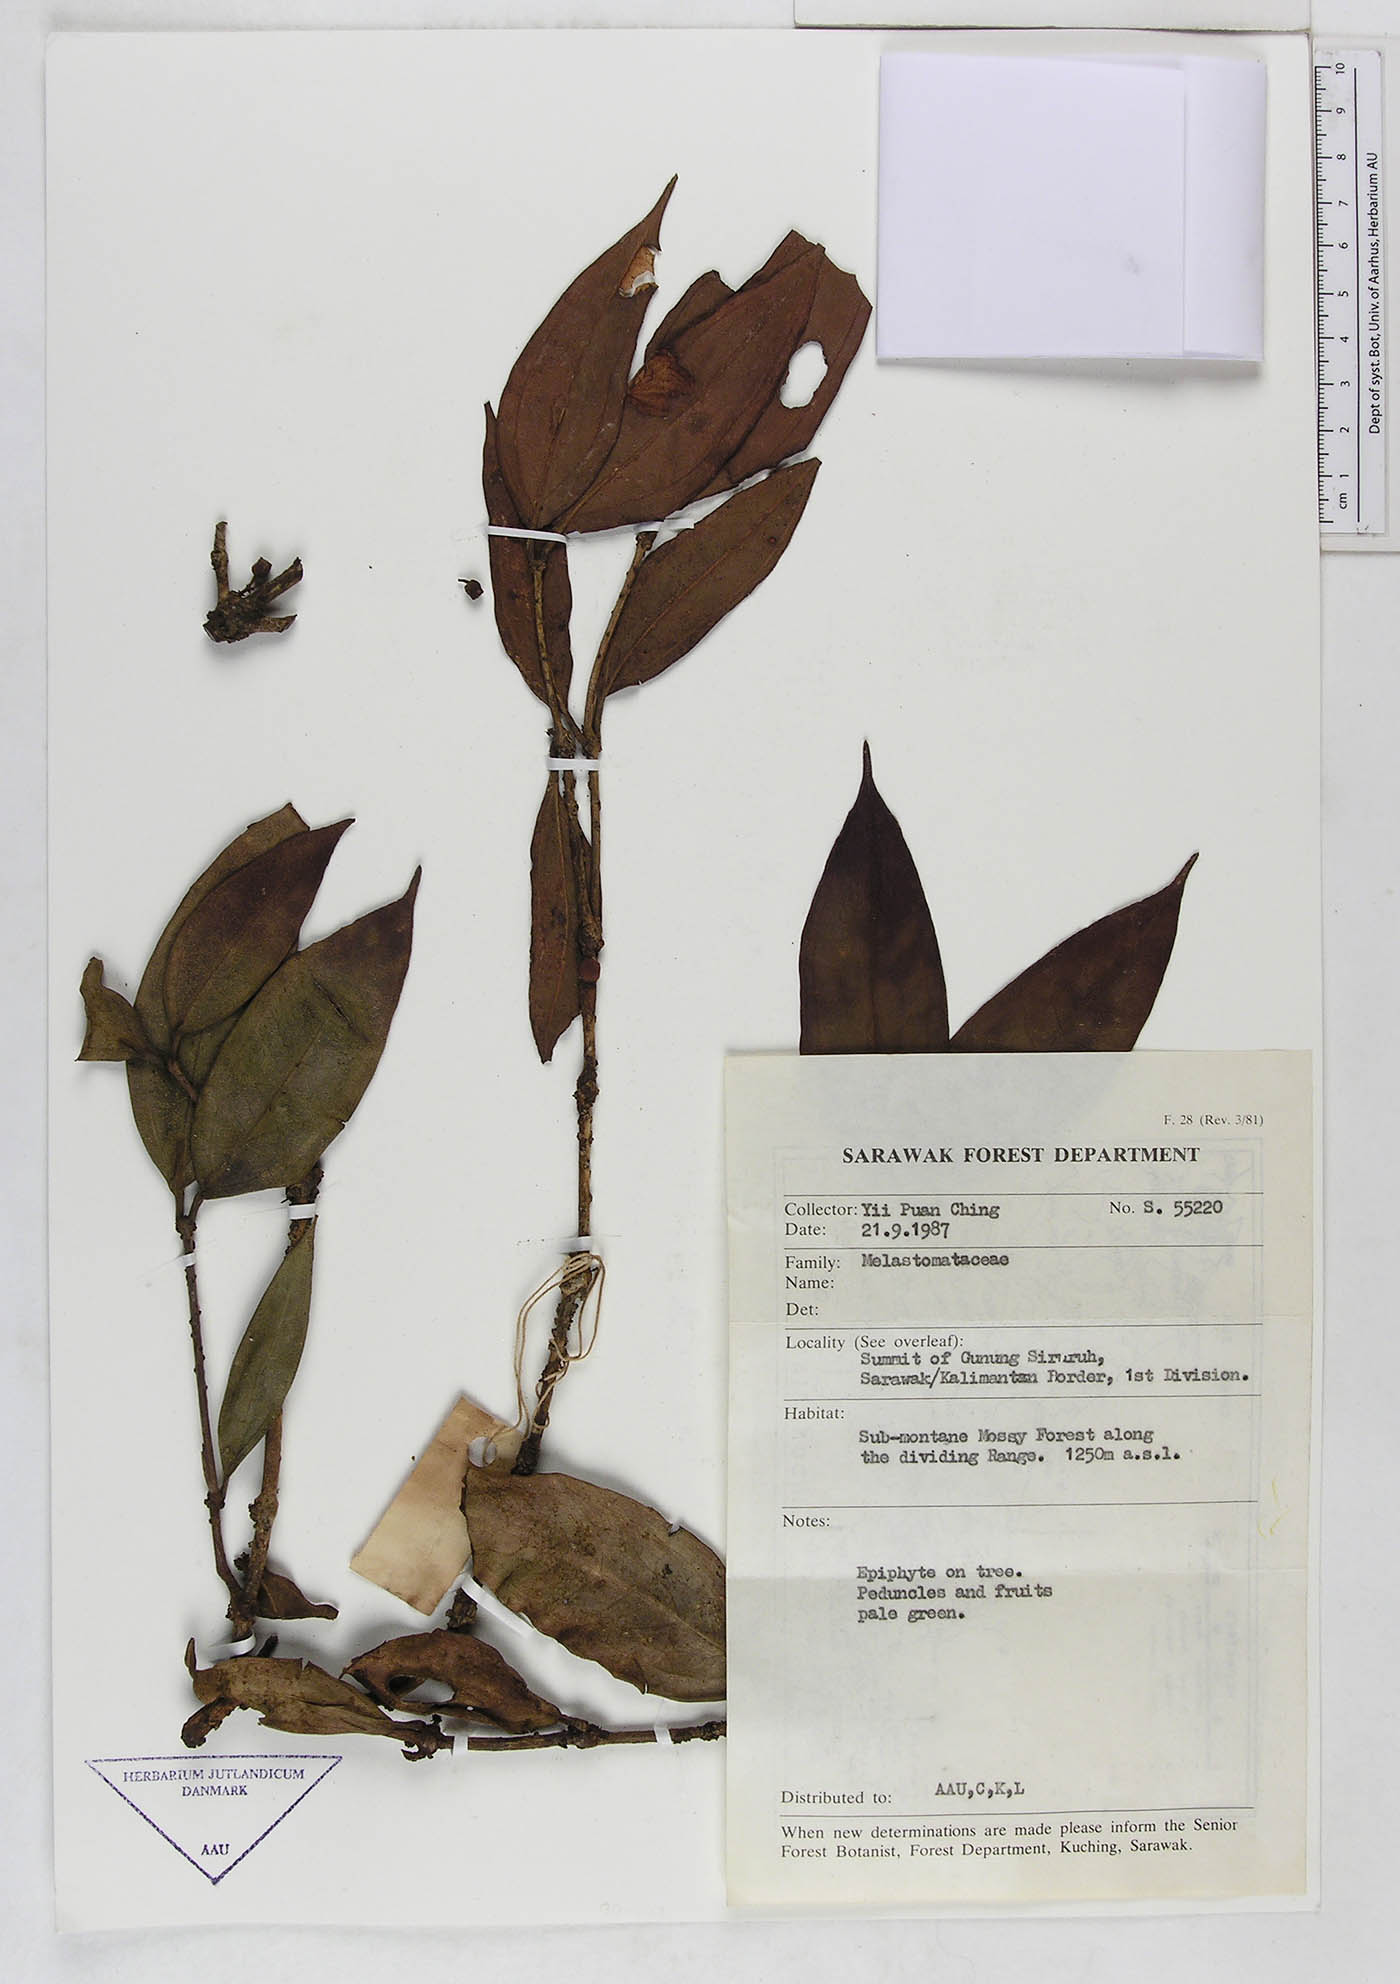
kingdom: Plantae
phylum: Tracheophyta
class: Magnoliopsida
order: Myrtales
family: Melastomataceae
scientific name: Melastomataceae
